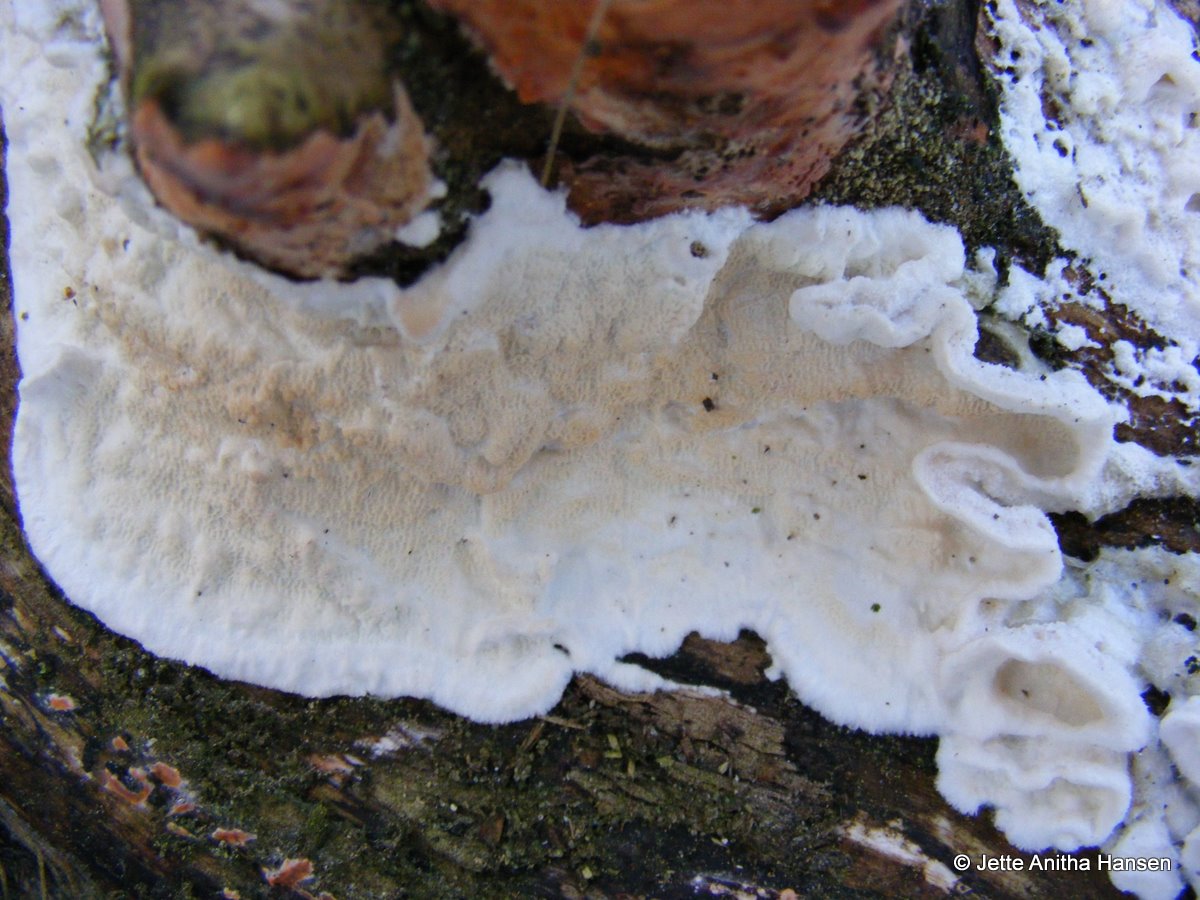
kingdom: Fungi
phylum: Basidiomycota
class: Agaricomycetes
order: Polyporales
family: Irpicaceae
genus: Byssomerulius
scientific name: Byssomerulius corium
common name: læder-åresvamp
